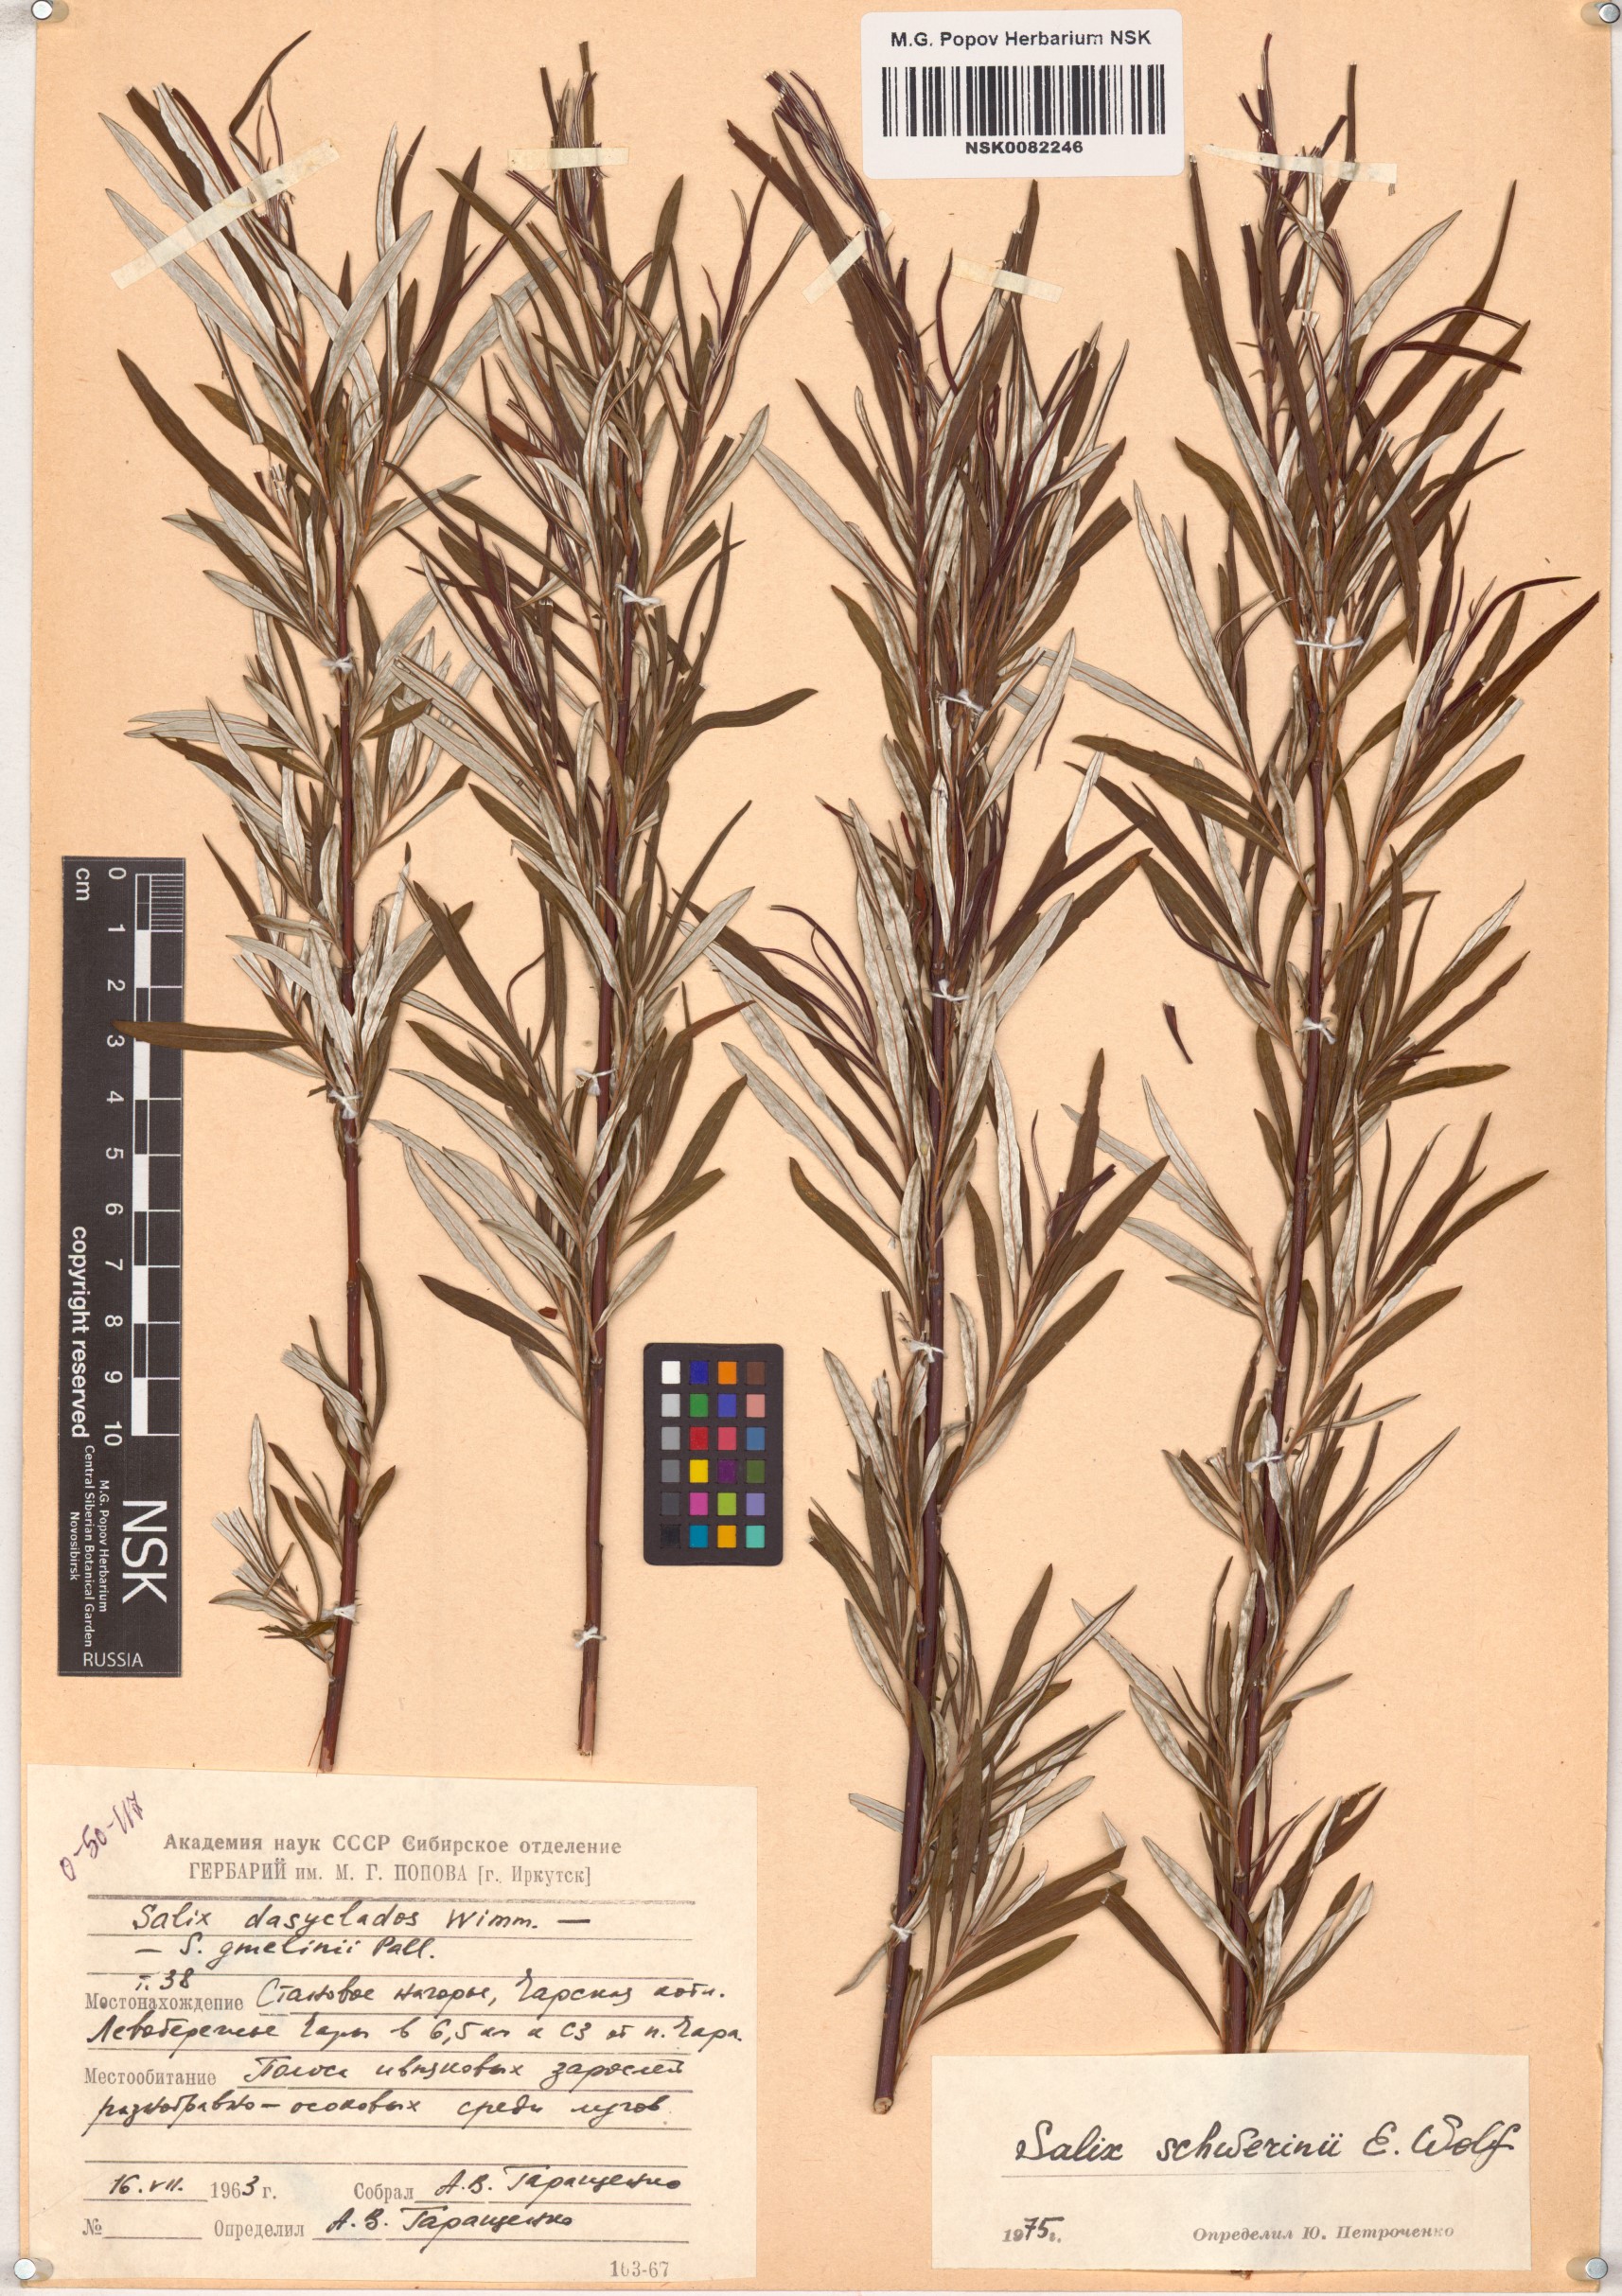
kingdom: Plantae
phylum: Tracheophyta
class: Magnoliopsida
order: Malpighiales
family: Salicaceae
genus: Salix
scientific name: Salix schwerinii
